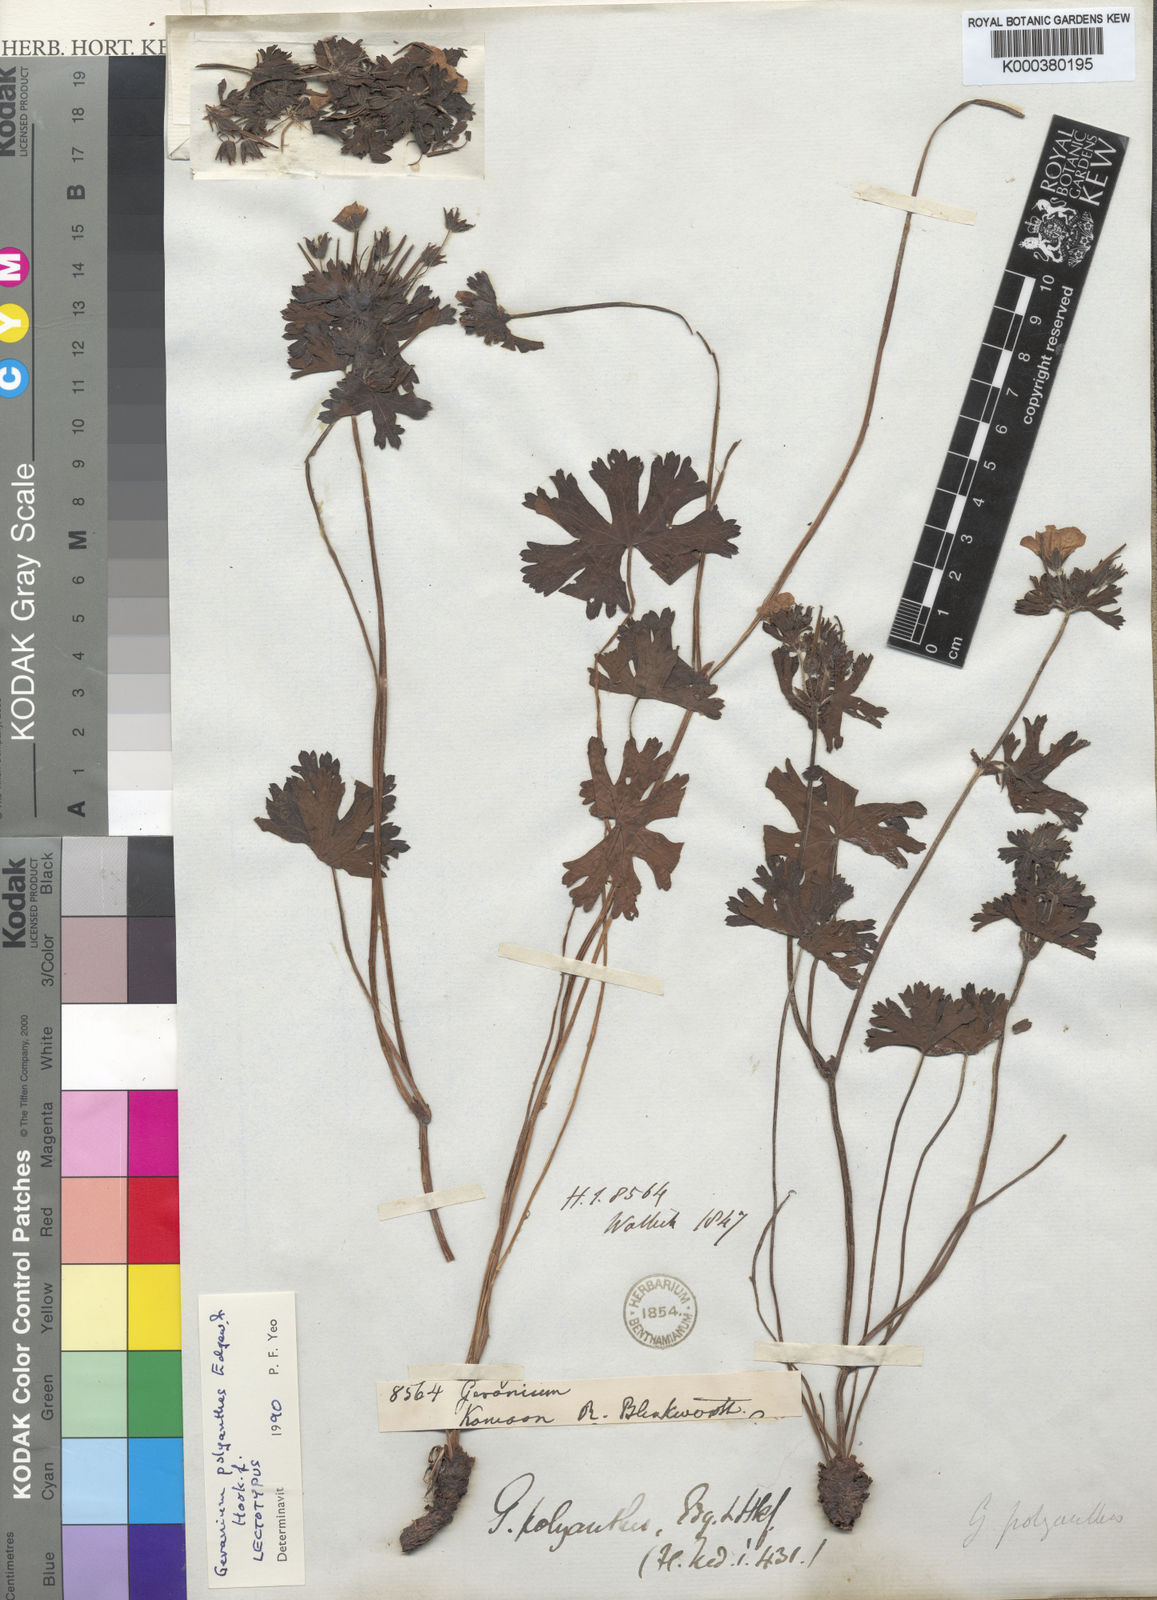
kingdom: Plantae
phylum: Tracheophyta
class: Magnoliopsida
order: Geraniales
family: Geraniaceae
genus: Geranium
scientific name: Geranium polyanthes
